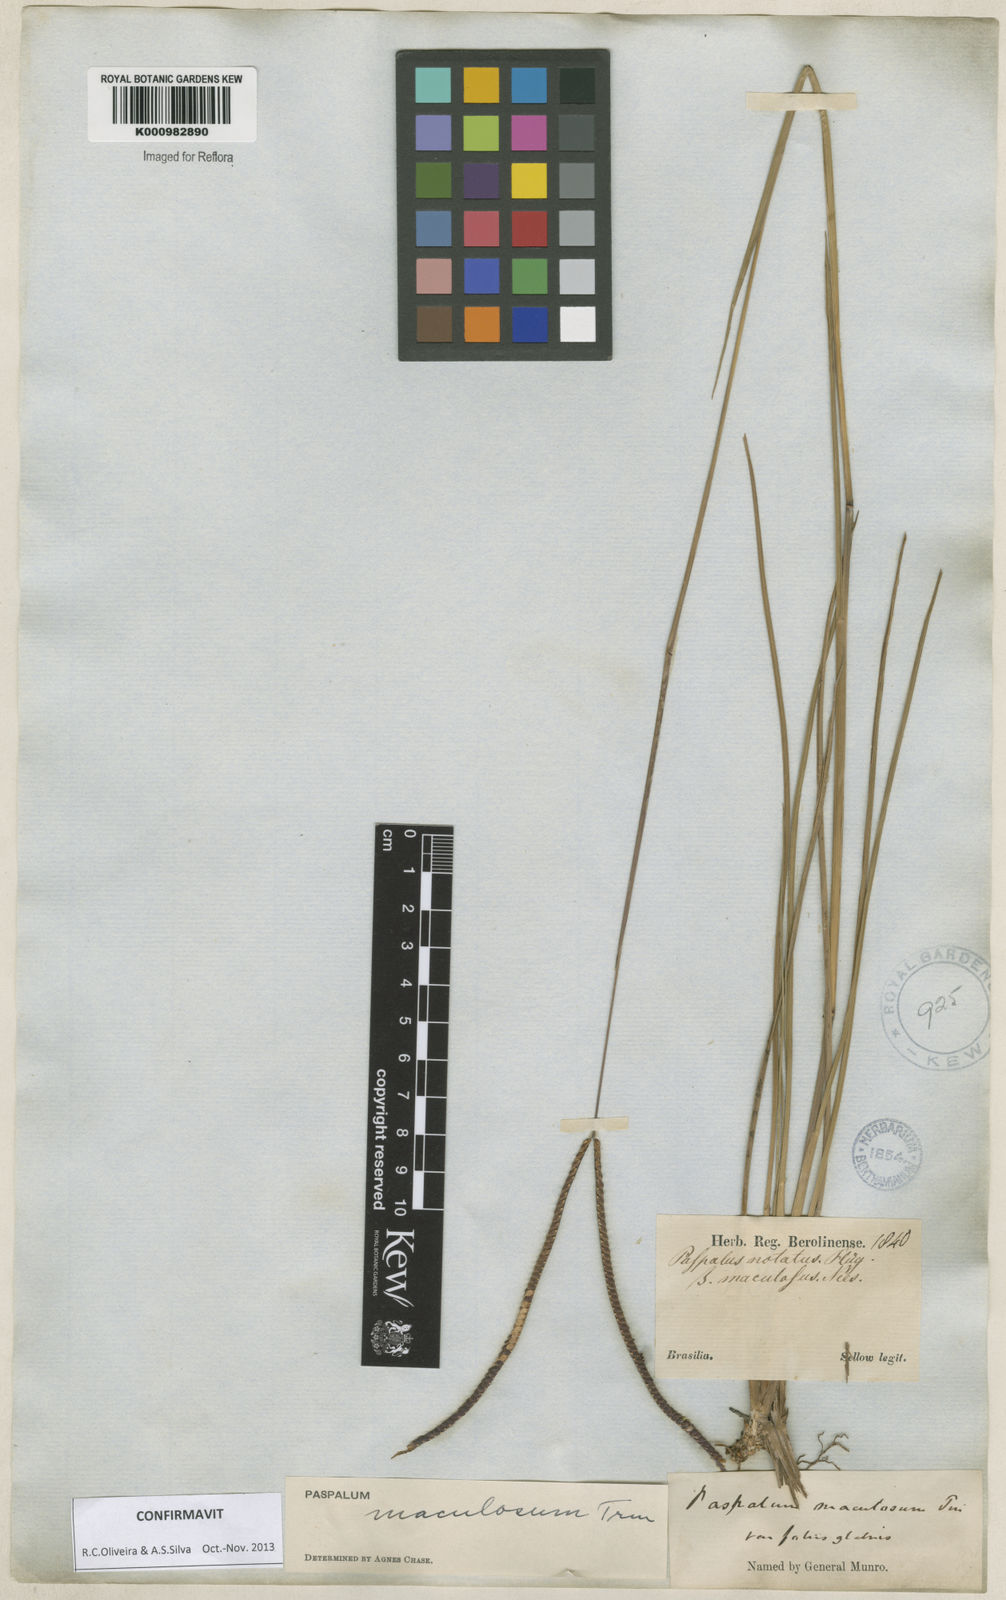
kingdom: Plantae
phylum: Tracheophyta
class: Liliopsida
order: Poales
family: Poaceae
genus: Paspalum
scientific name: Paspalum maculosum
